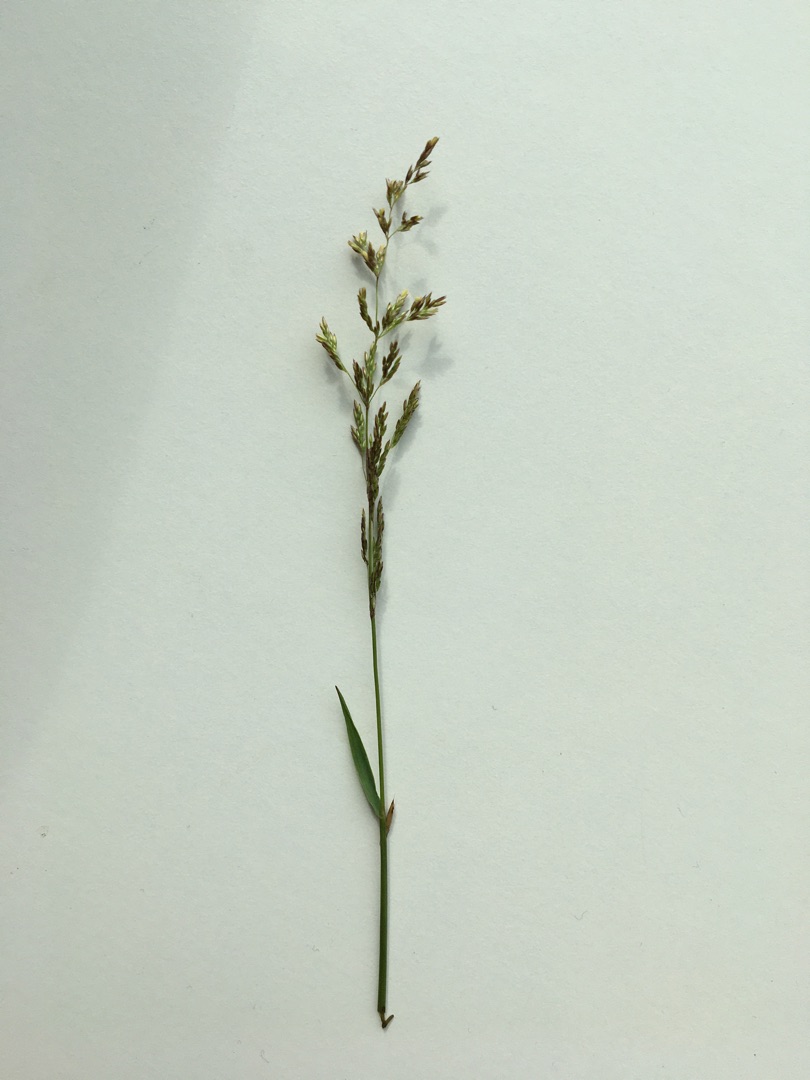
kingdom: Plantae
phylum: Tracheophyta
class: Liliopsida
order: Poales
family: Poaceae
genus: Poa
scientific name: Poa pratensis
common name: Eng-rapgræs
